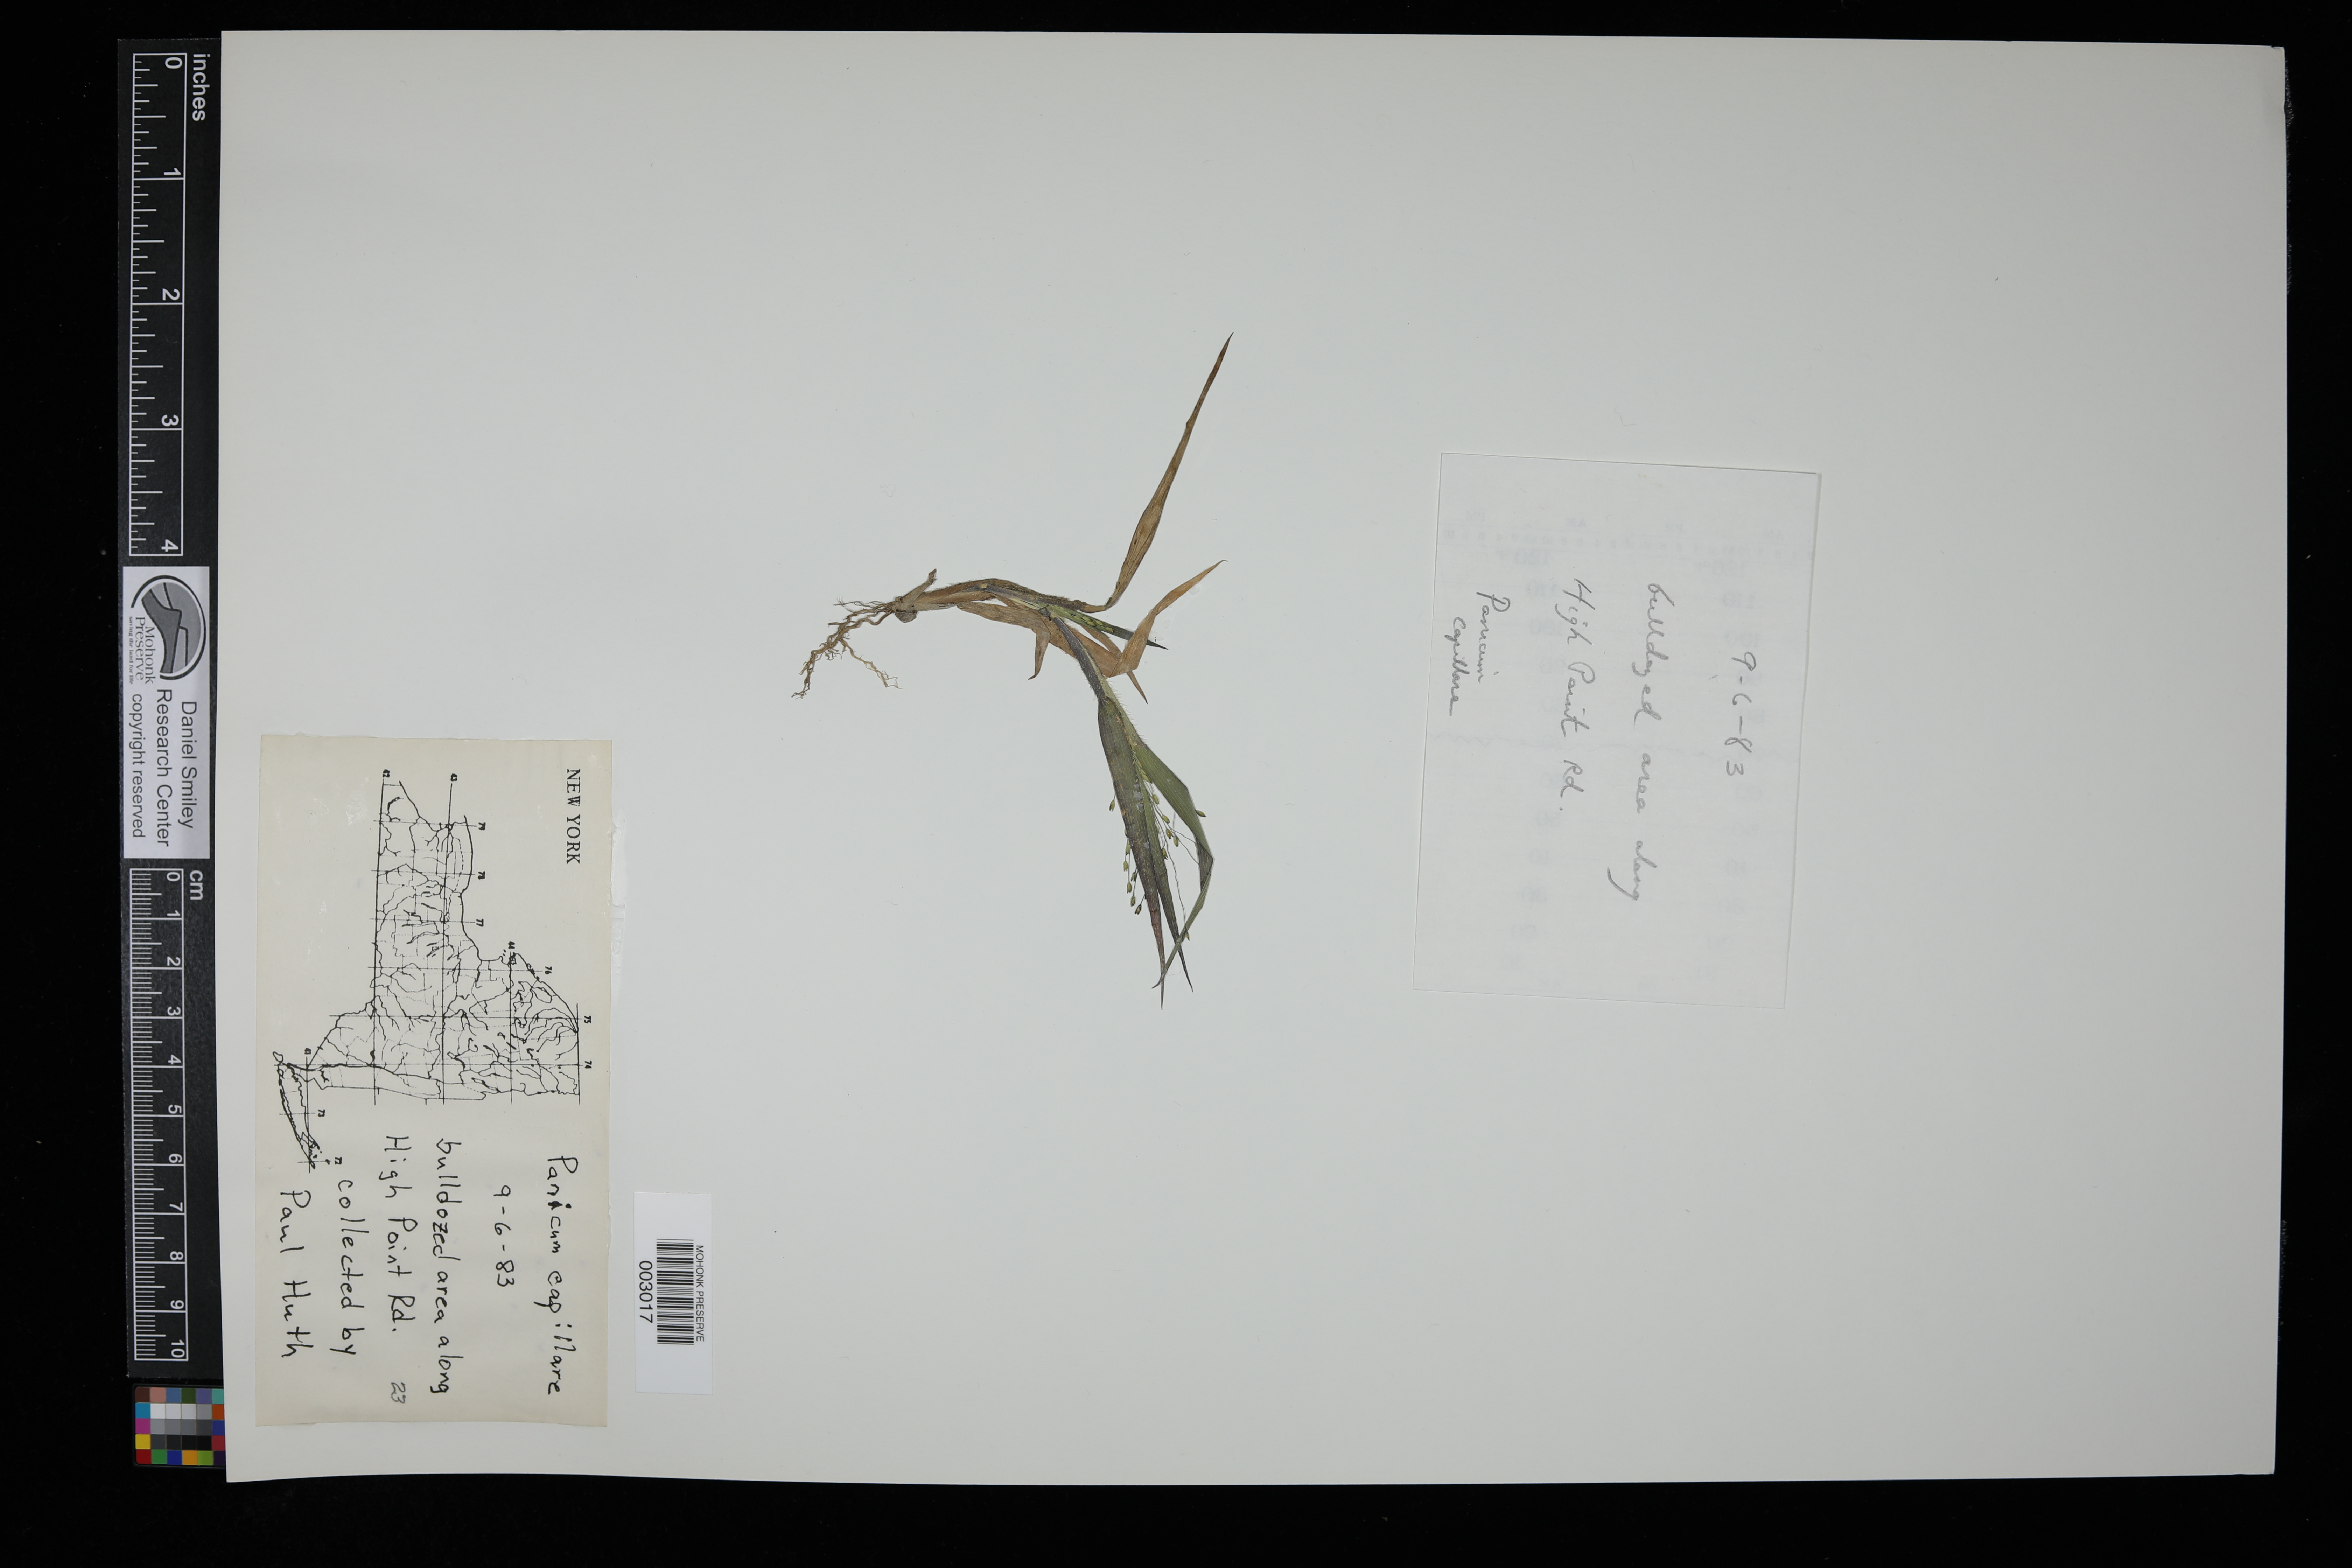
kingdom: Plantae
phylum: Tracheophyta
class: Liliopsida
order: Poales
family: Poaceae
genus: Panicum
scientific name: Panicum capillare
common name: Witch-grass
